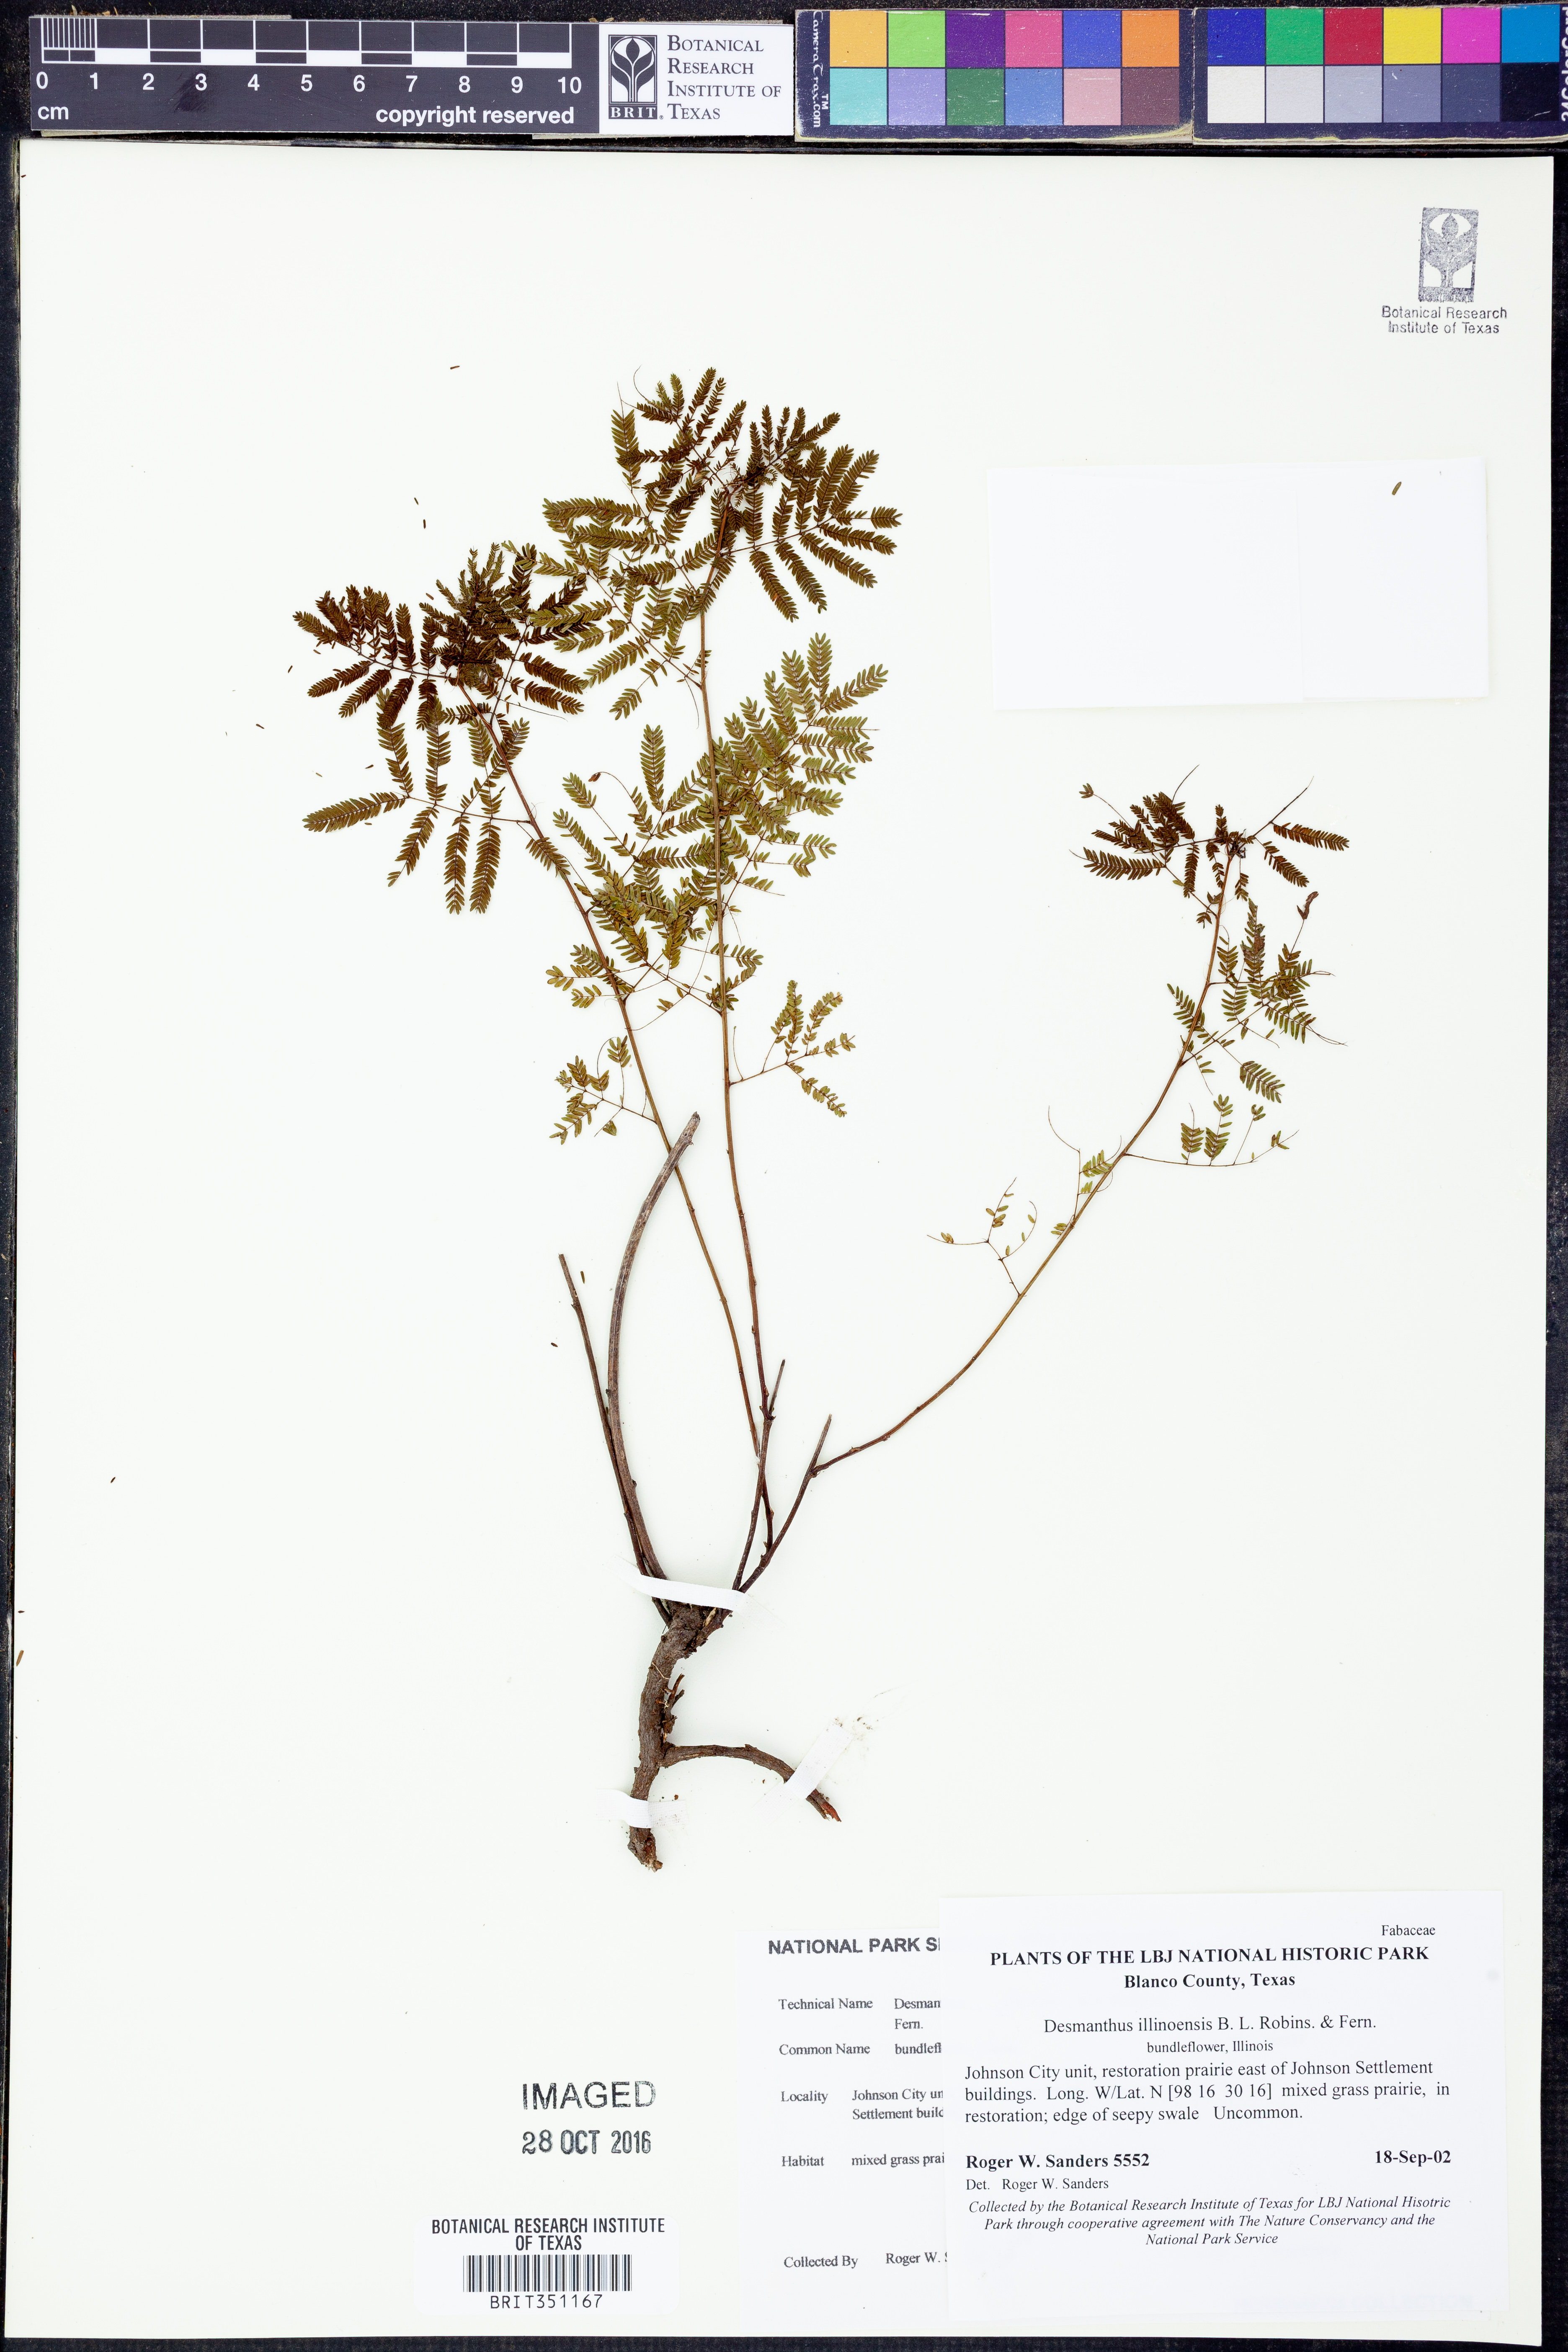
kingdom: Plantae
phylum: Tracheophyta
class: Magnoliopsida
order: Fabales
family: Fabaceae
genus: Desmanthus
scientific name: Desmanthus illinoensis
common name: Illinois bundle-flower
